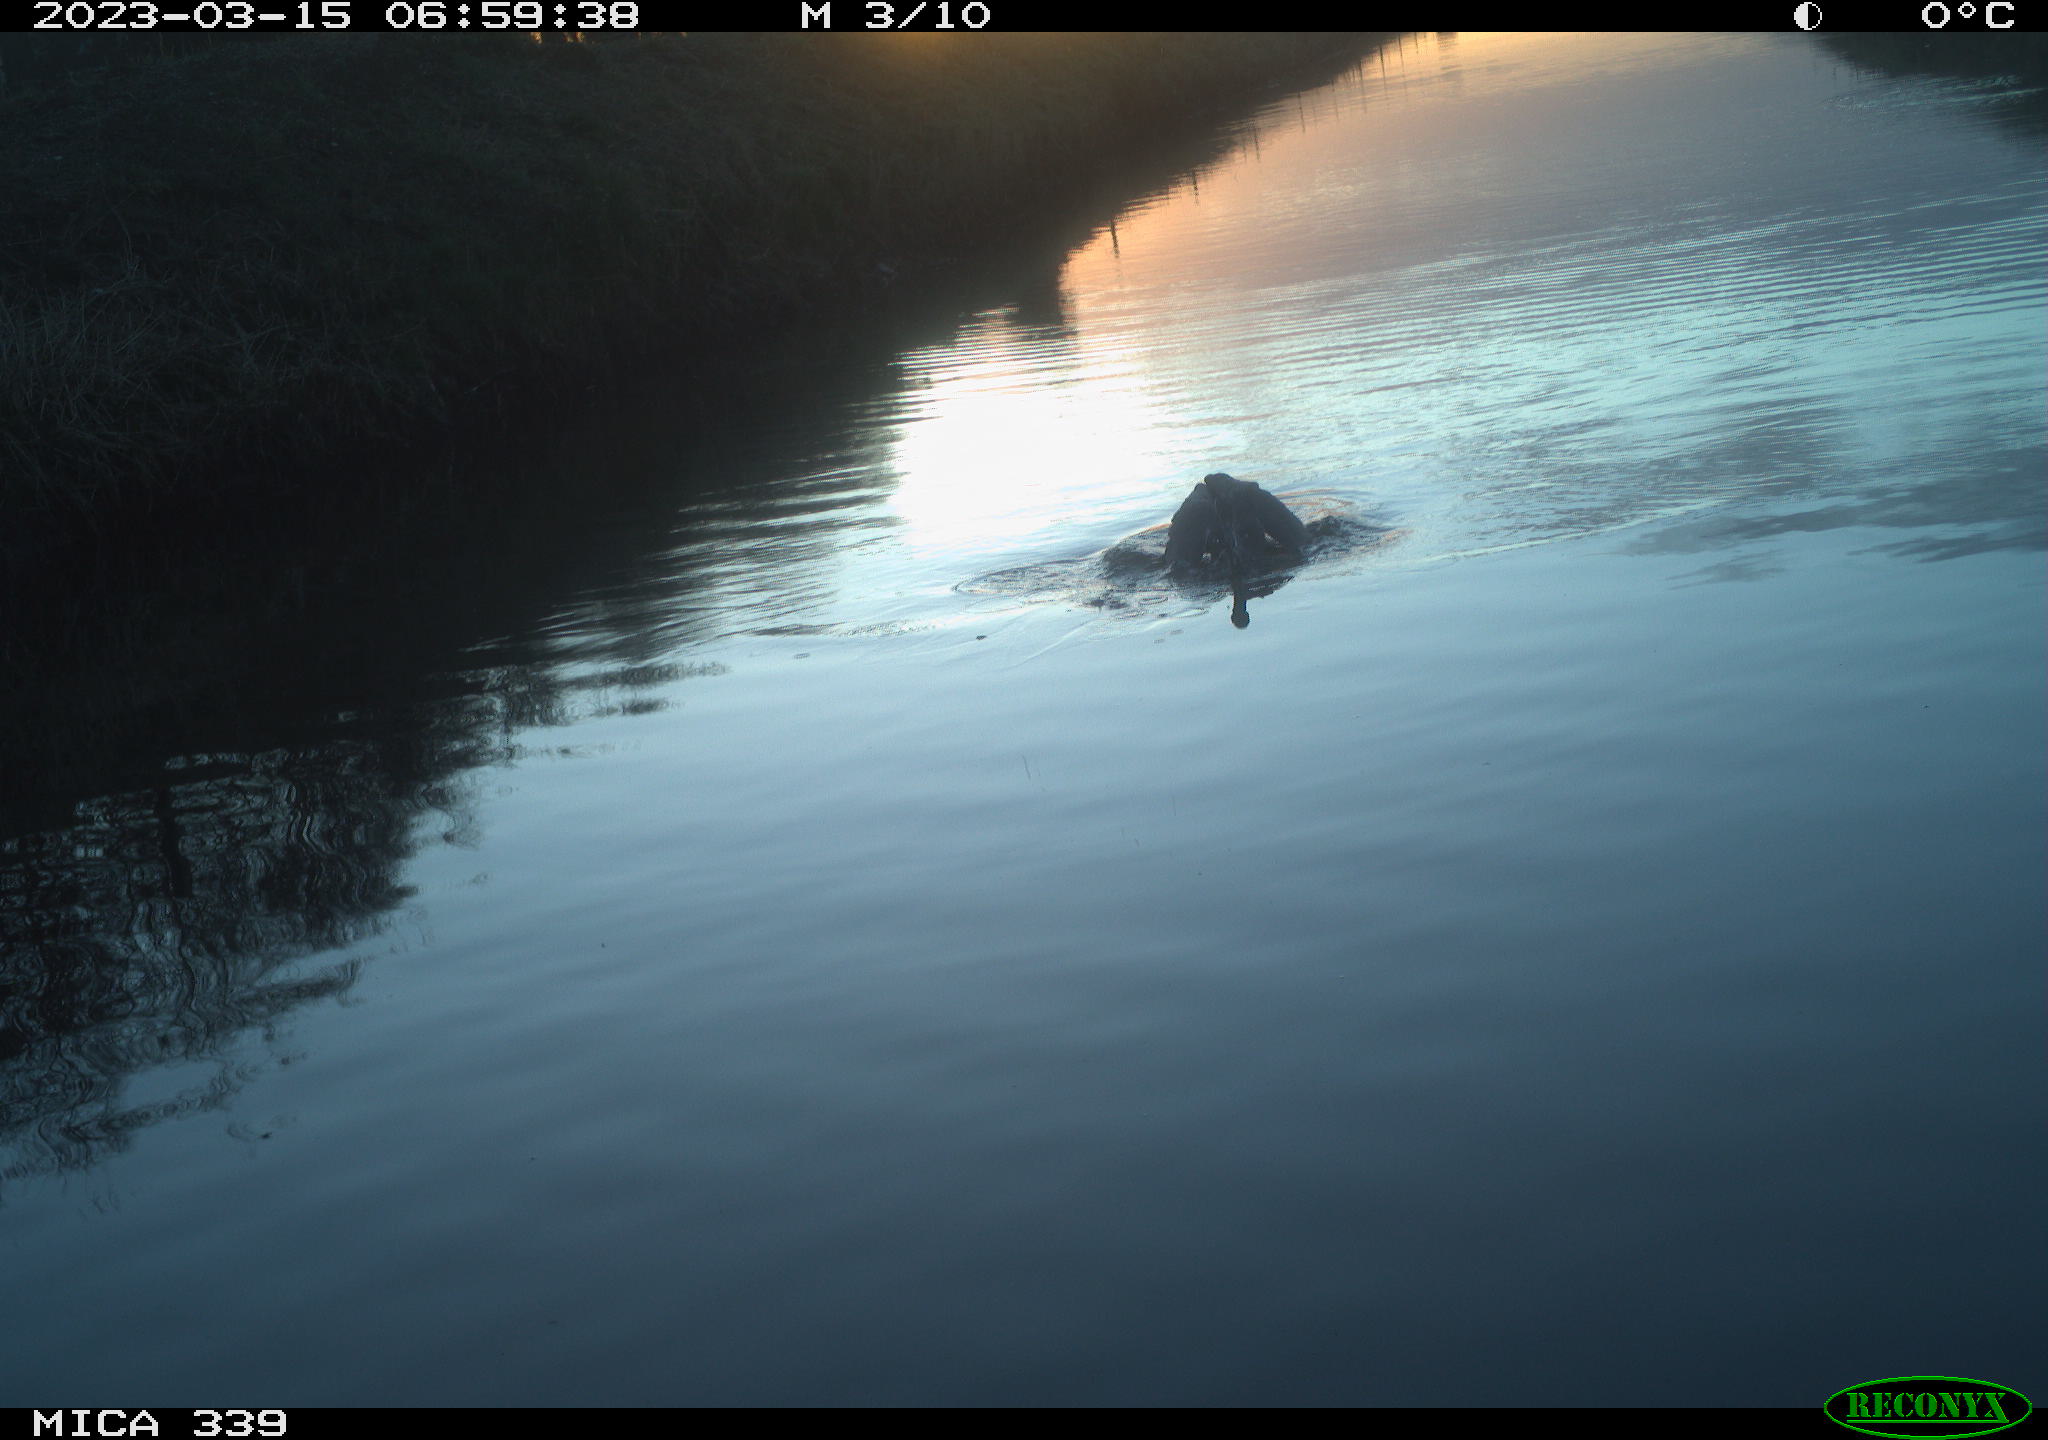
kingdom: Animalia
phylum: Chordata
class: Aves
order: Pelecaniformes
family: Ardeidae
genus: Ardea
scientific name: Ardea
